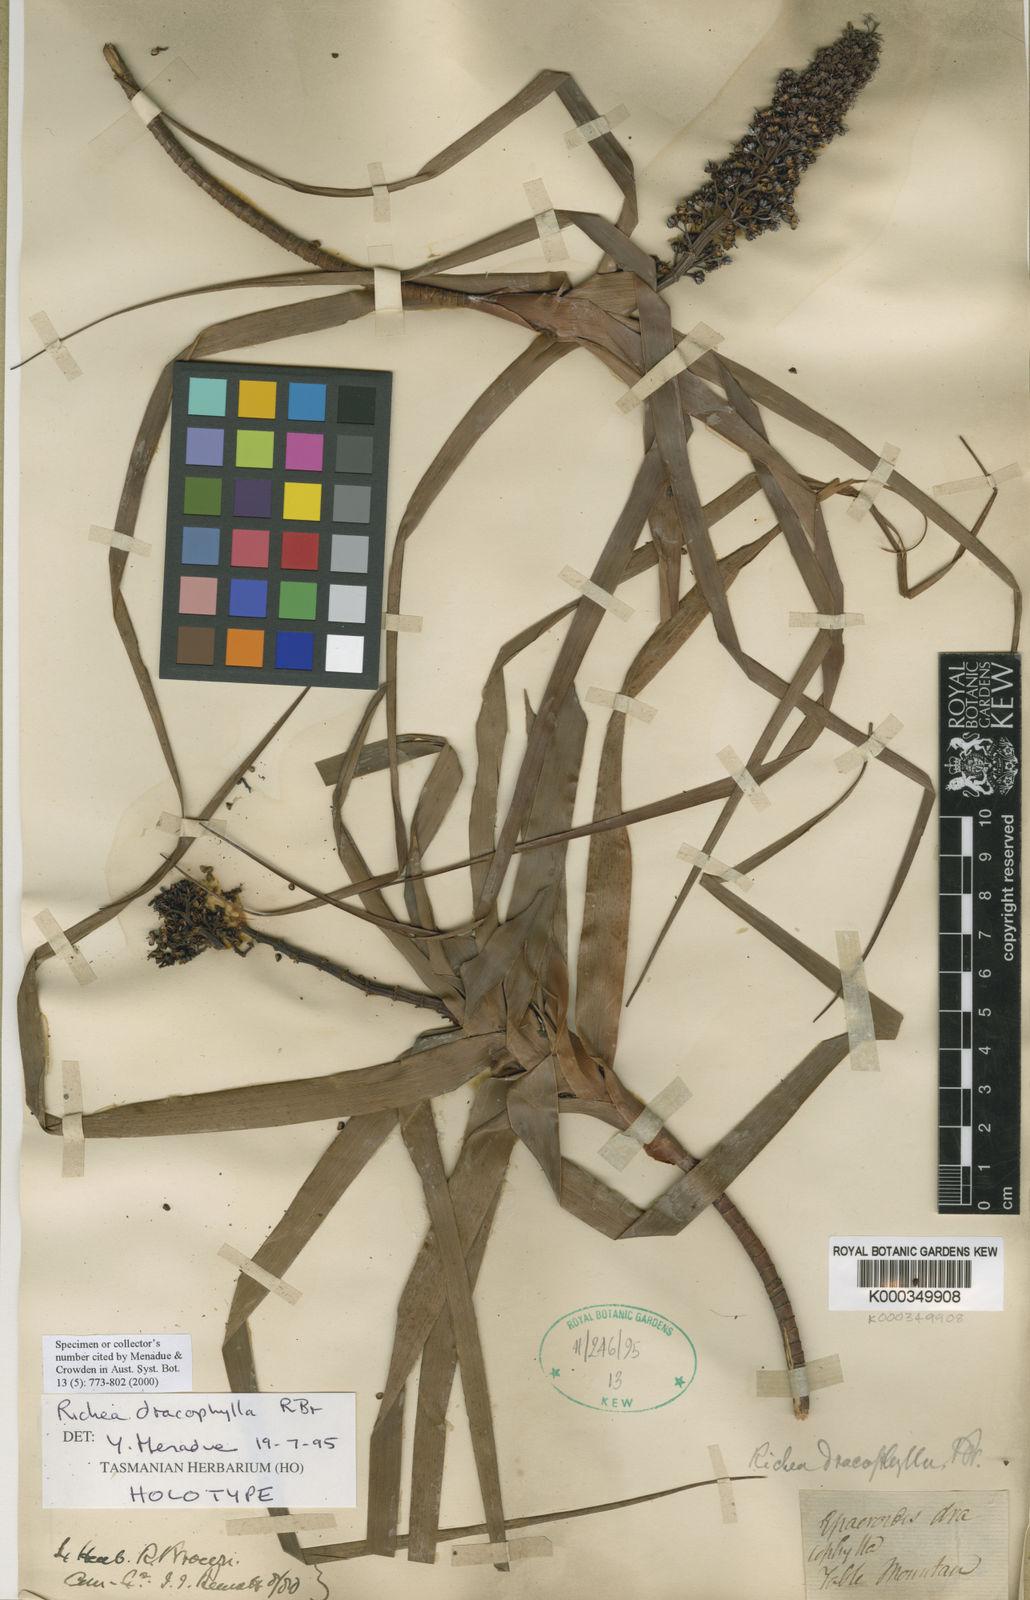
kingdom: Plantae
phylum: Tracheophyta
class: Magnoliopsida
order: Ericales
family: Ericaceae
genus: Dracophyllum
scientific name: Dracophyllum desgrazii
